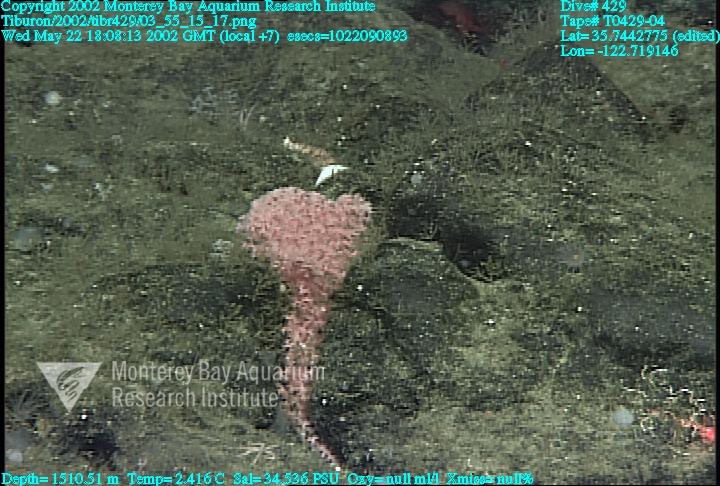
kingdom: Animalia
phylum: Porifera
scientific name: Porifera
